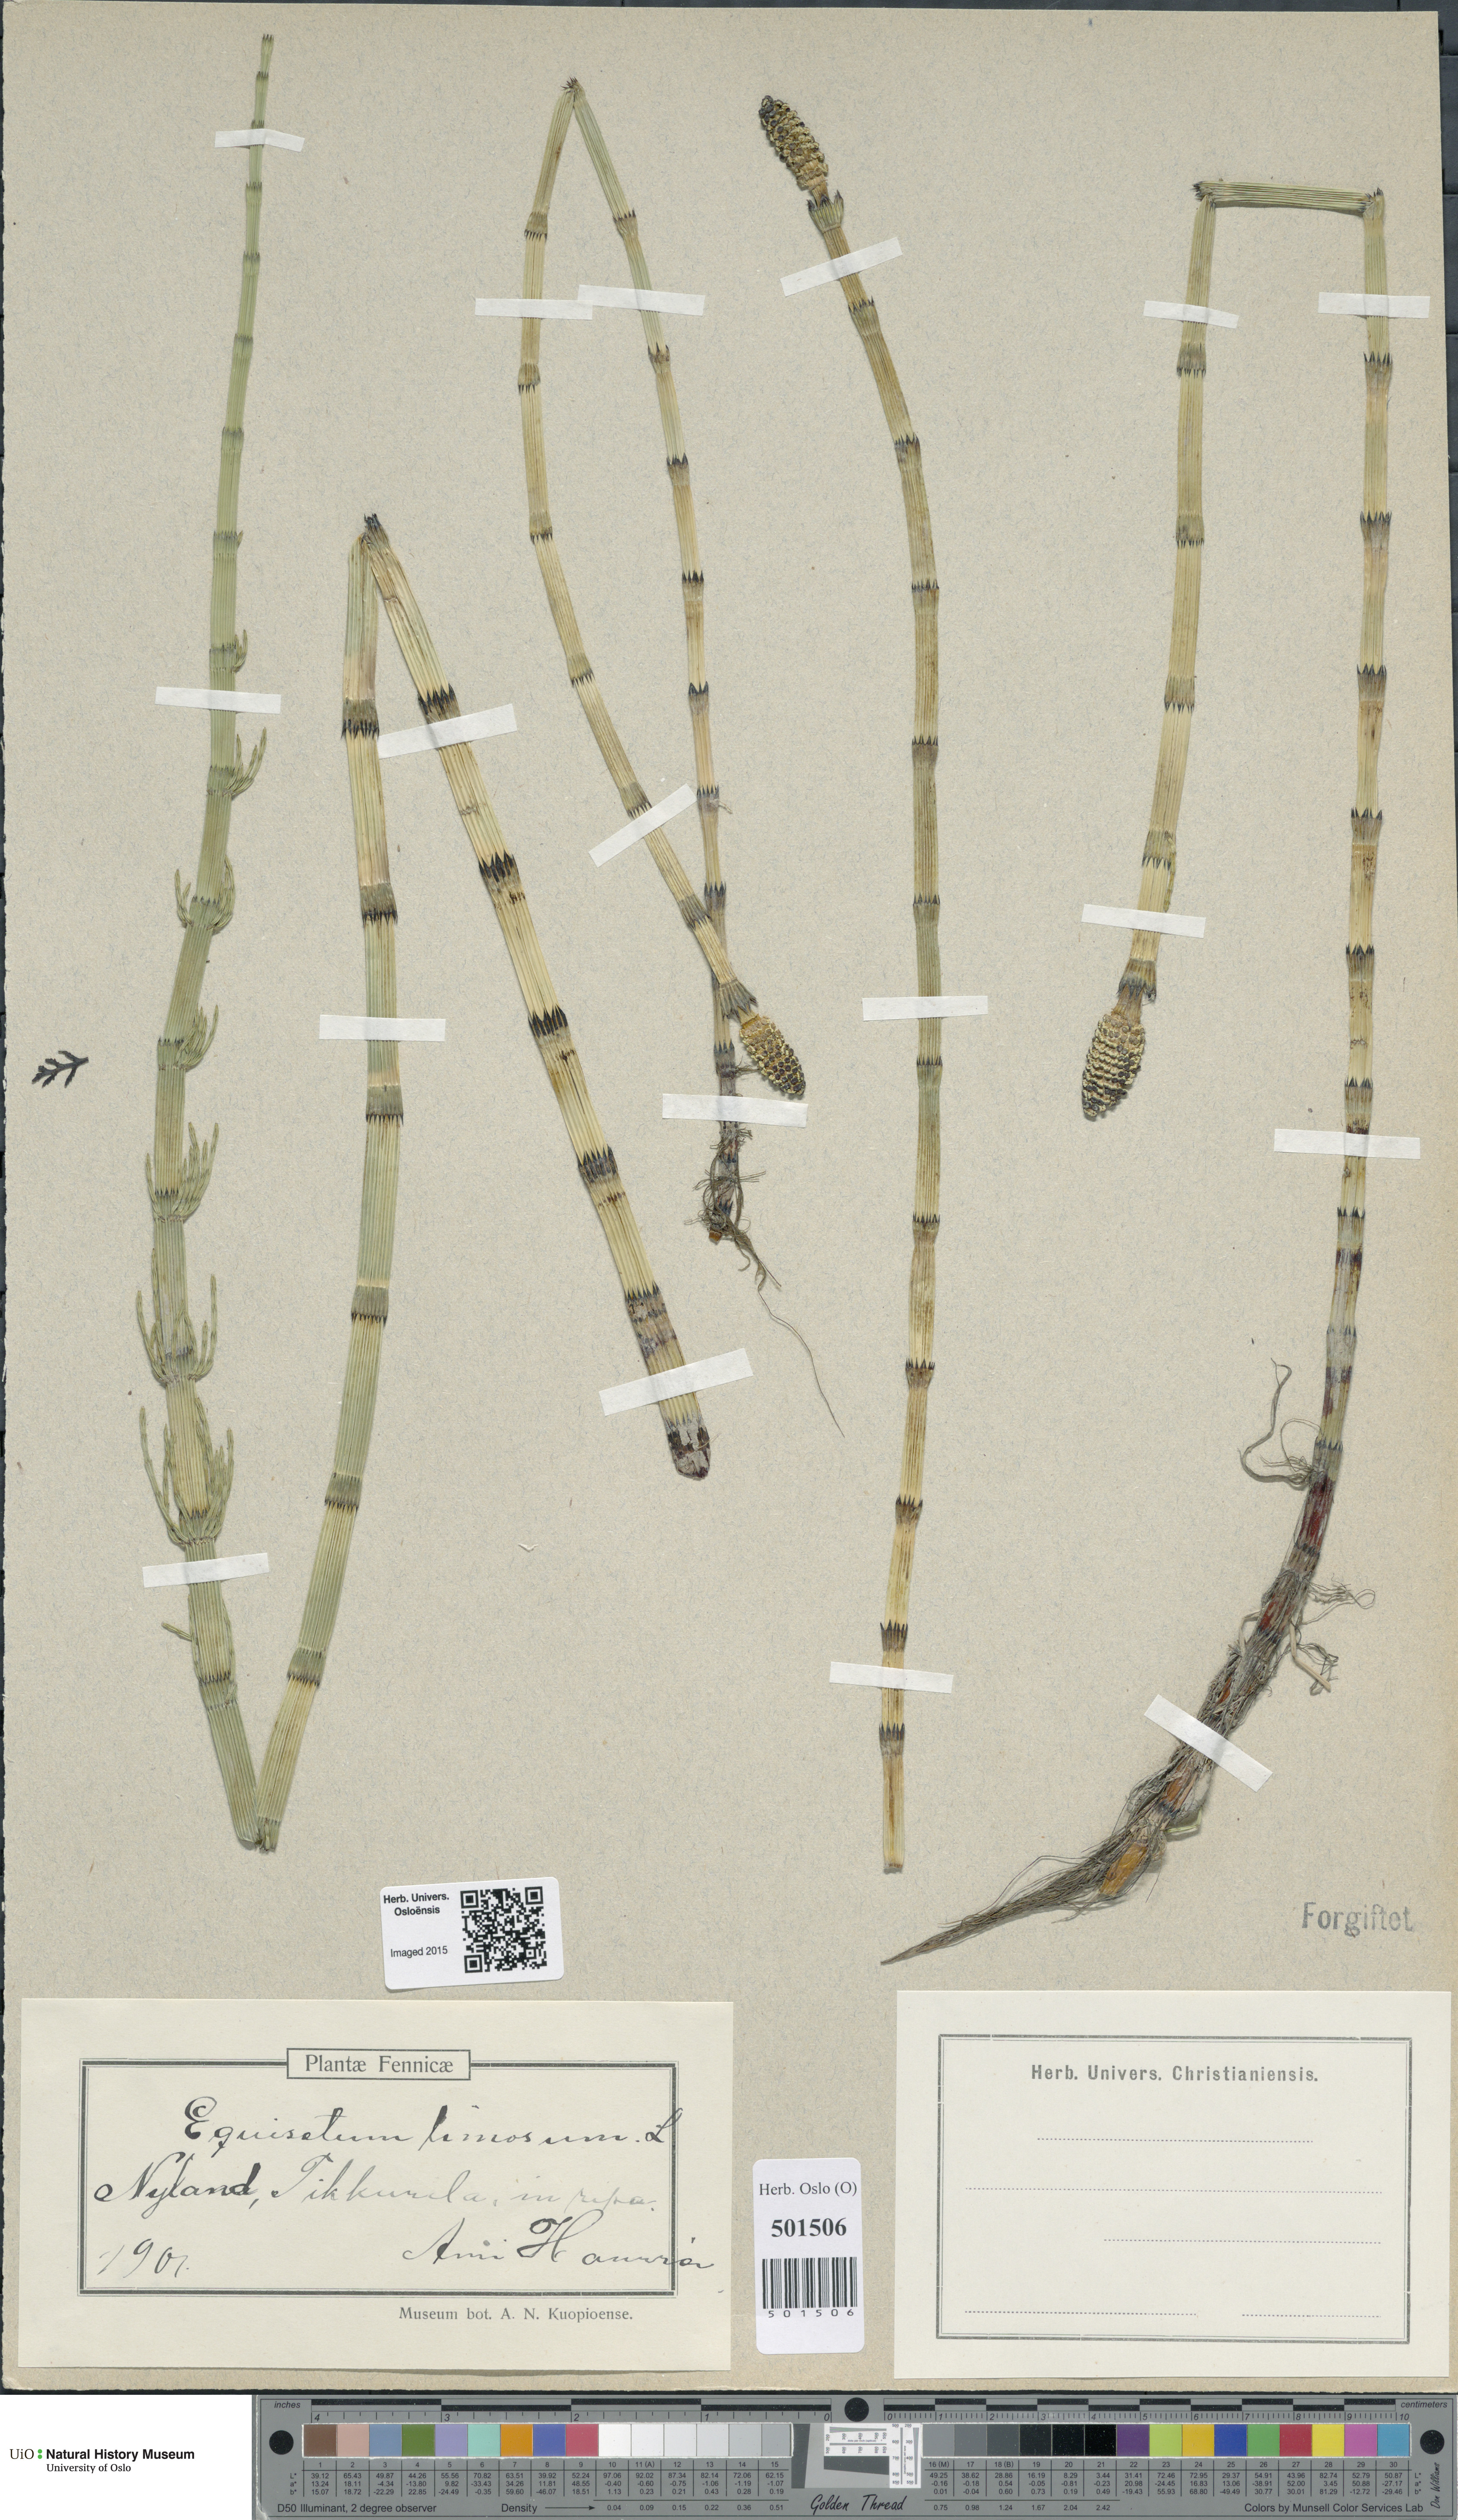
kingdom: Plantae
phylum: Tracheophyta
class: Polypodiopsida
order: Equisetales
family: Equisetaceae
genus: Equisetum
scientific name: Equisetum fluviatile
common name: Water horsetail
